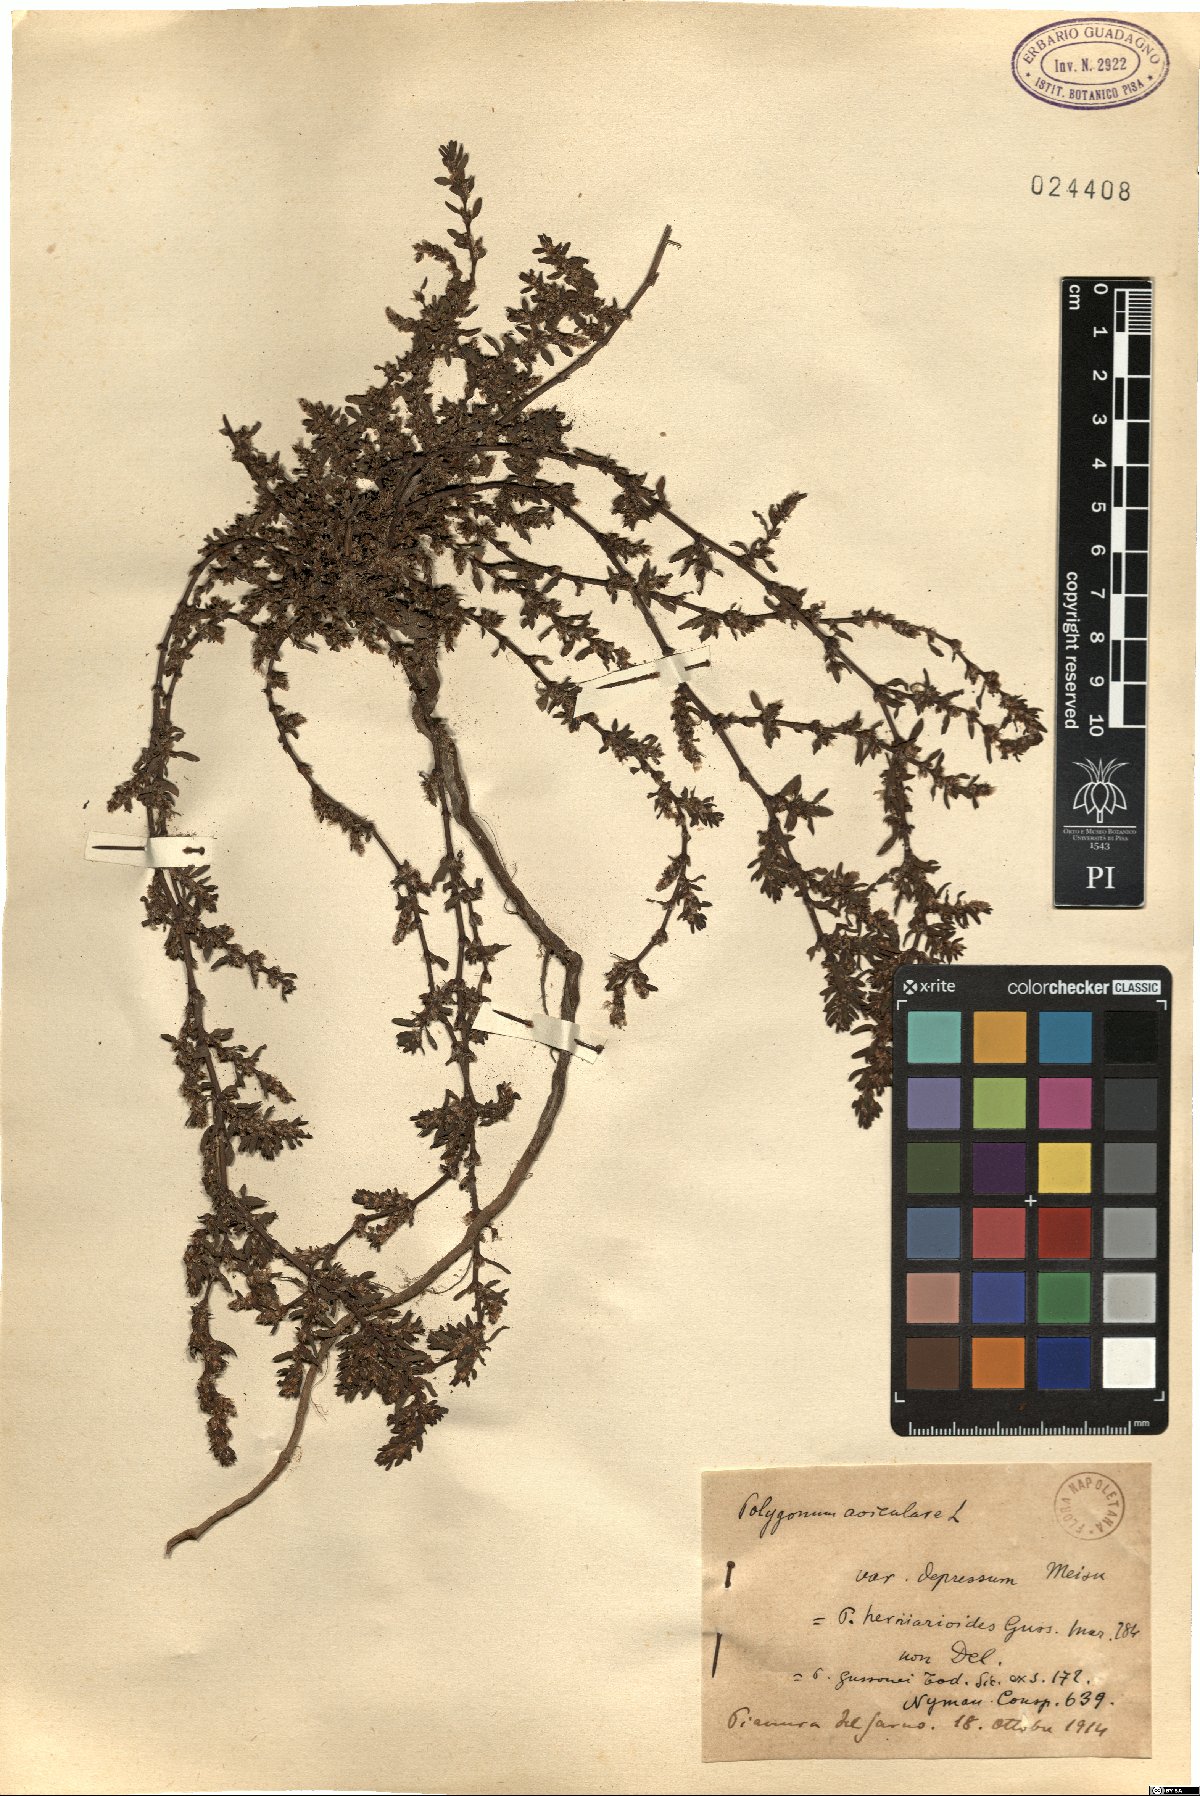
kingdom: Plantae
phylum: Tracheophyta
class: Magnoliopsida
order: Caryophyllales
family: Polygonaceae
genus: Polygonum
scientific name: Polygonum arenastrum
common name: Equal-leaved knotgrass
